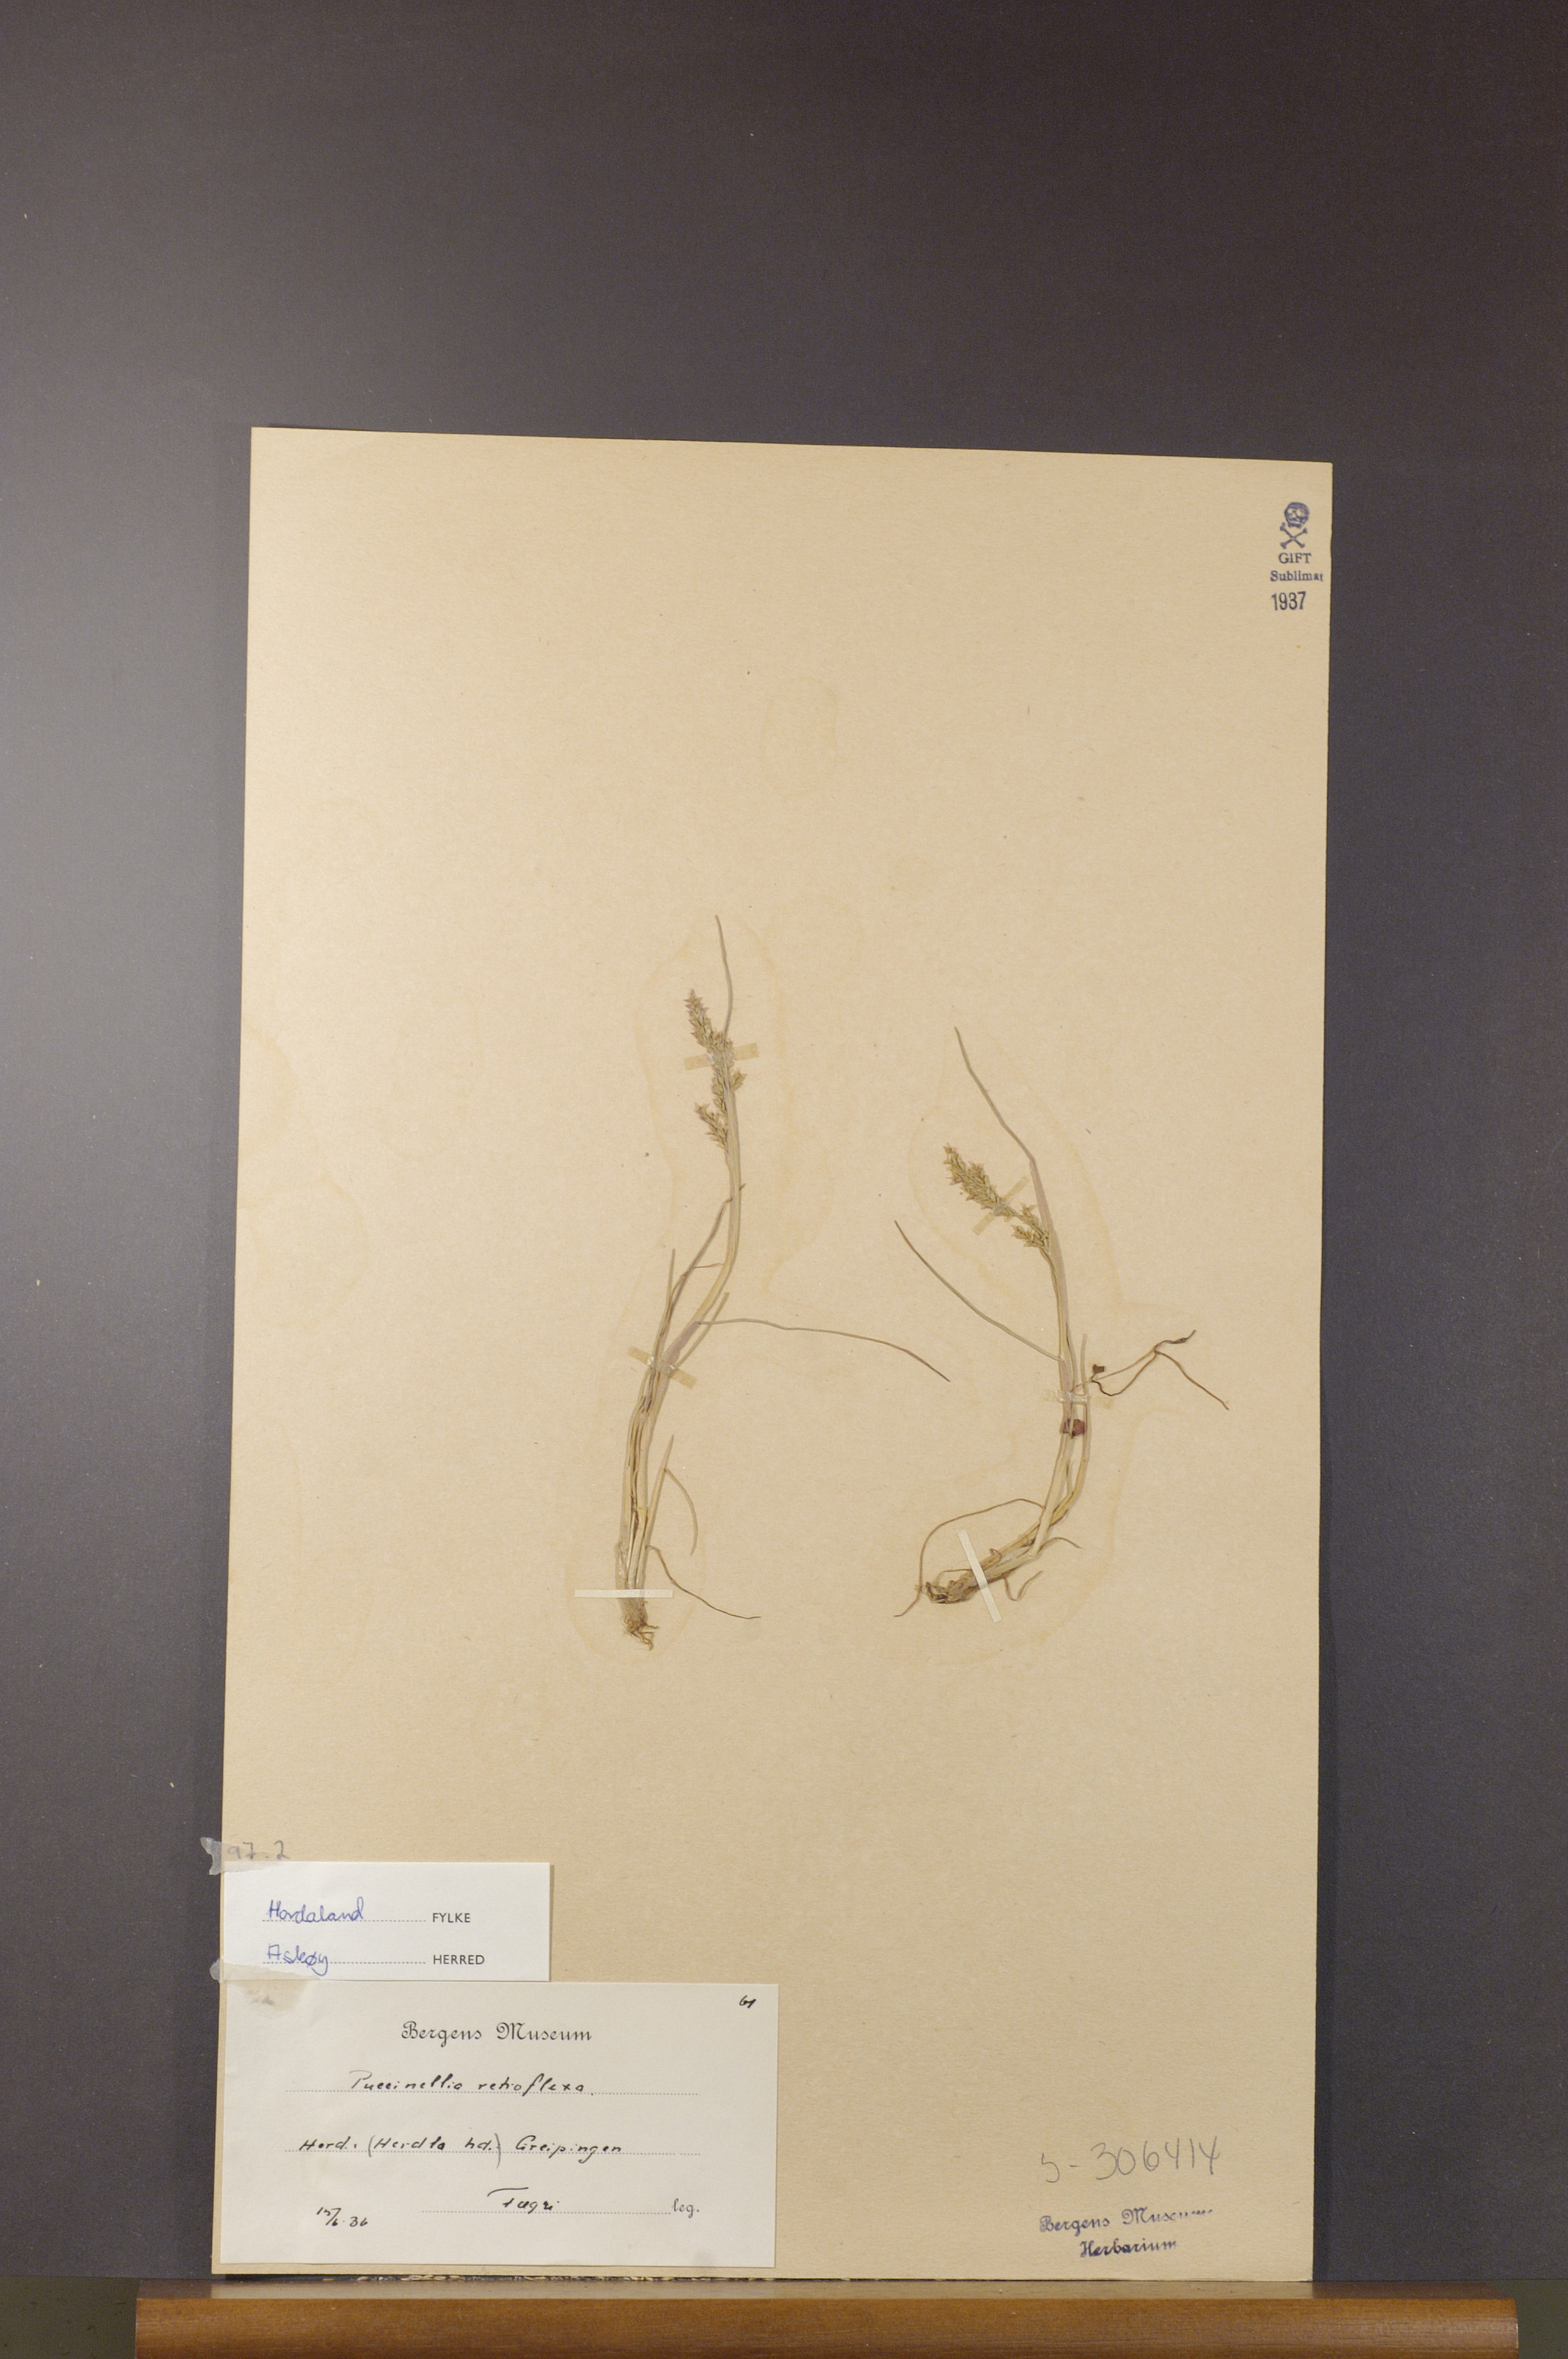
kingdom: Plantae
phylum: Tracheophyta
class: Liliopsida
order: Poales
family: Poaceae
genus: Puccinellia
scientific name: Puccinellia distans
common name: Weeping alkaligrass
